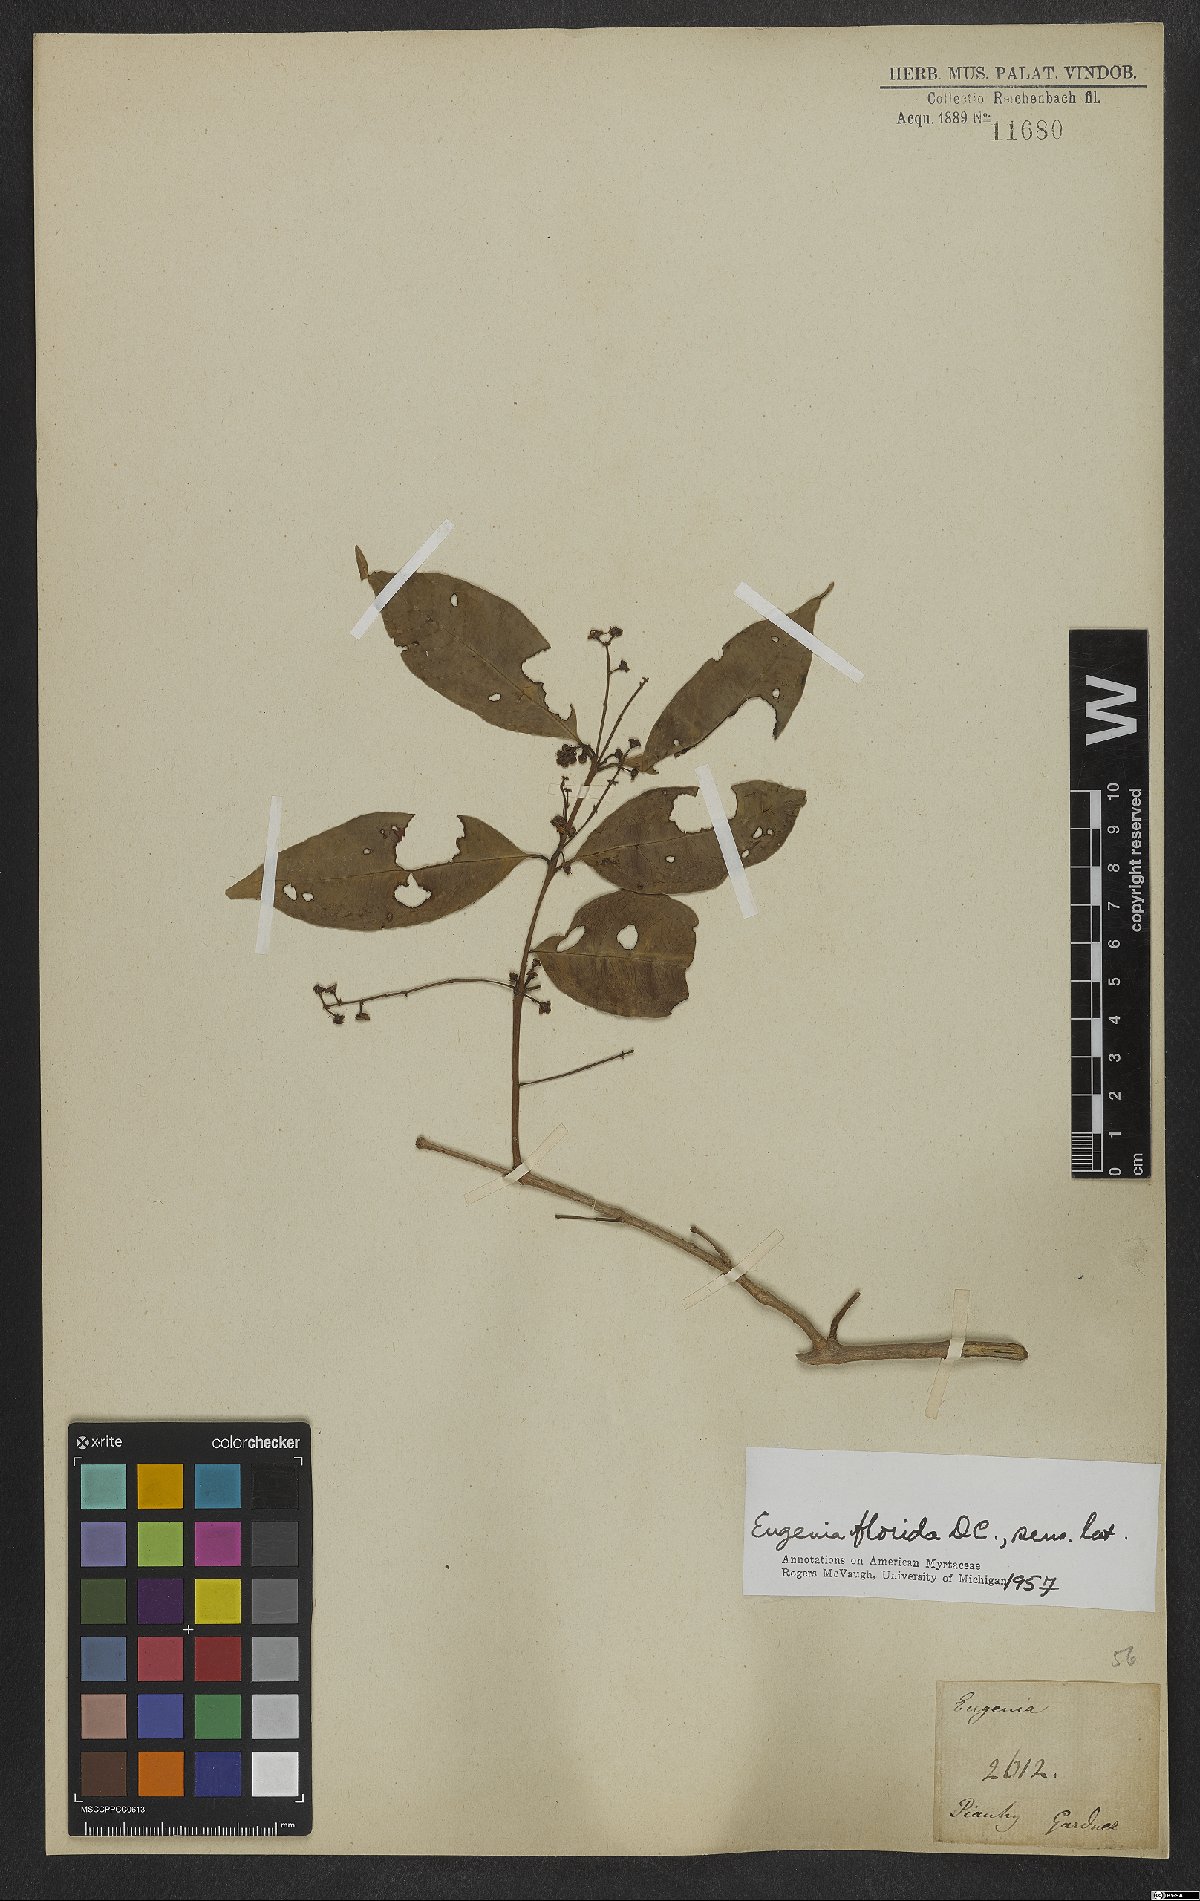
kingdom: Plantae
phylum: Tracheophyta
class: Magnoliopsida
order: Myrtales
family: Myrtaceae
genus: Eugenia
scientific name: Eugenia florida
